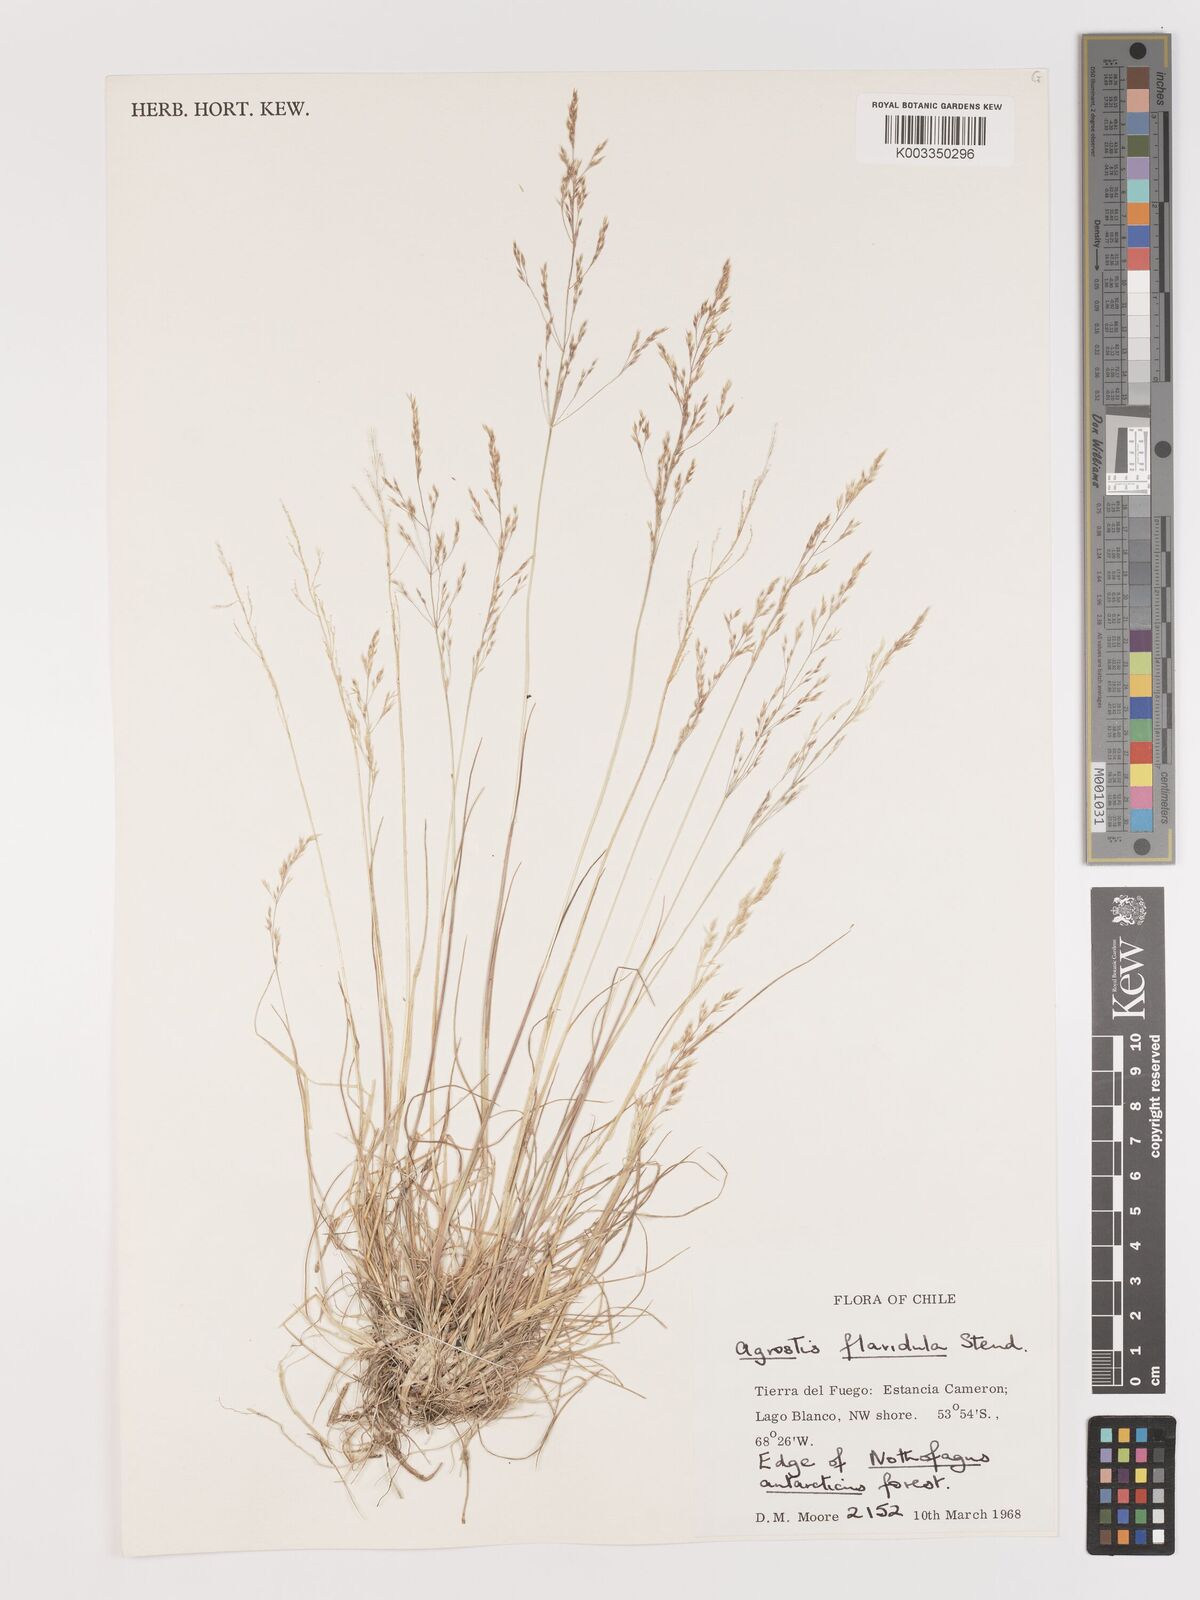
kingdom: Plantae
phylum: Tracheophyta
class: Liliopsida
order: Poales
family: Poaceae
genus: Agrostis
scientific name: Agrostis perennans
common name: Autumn bent
